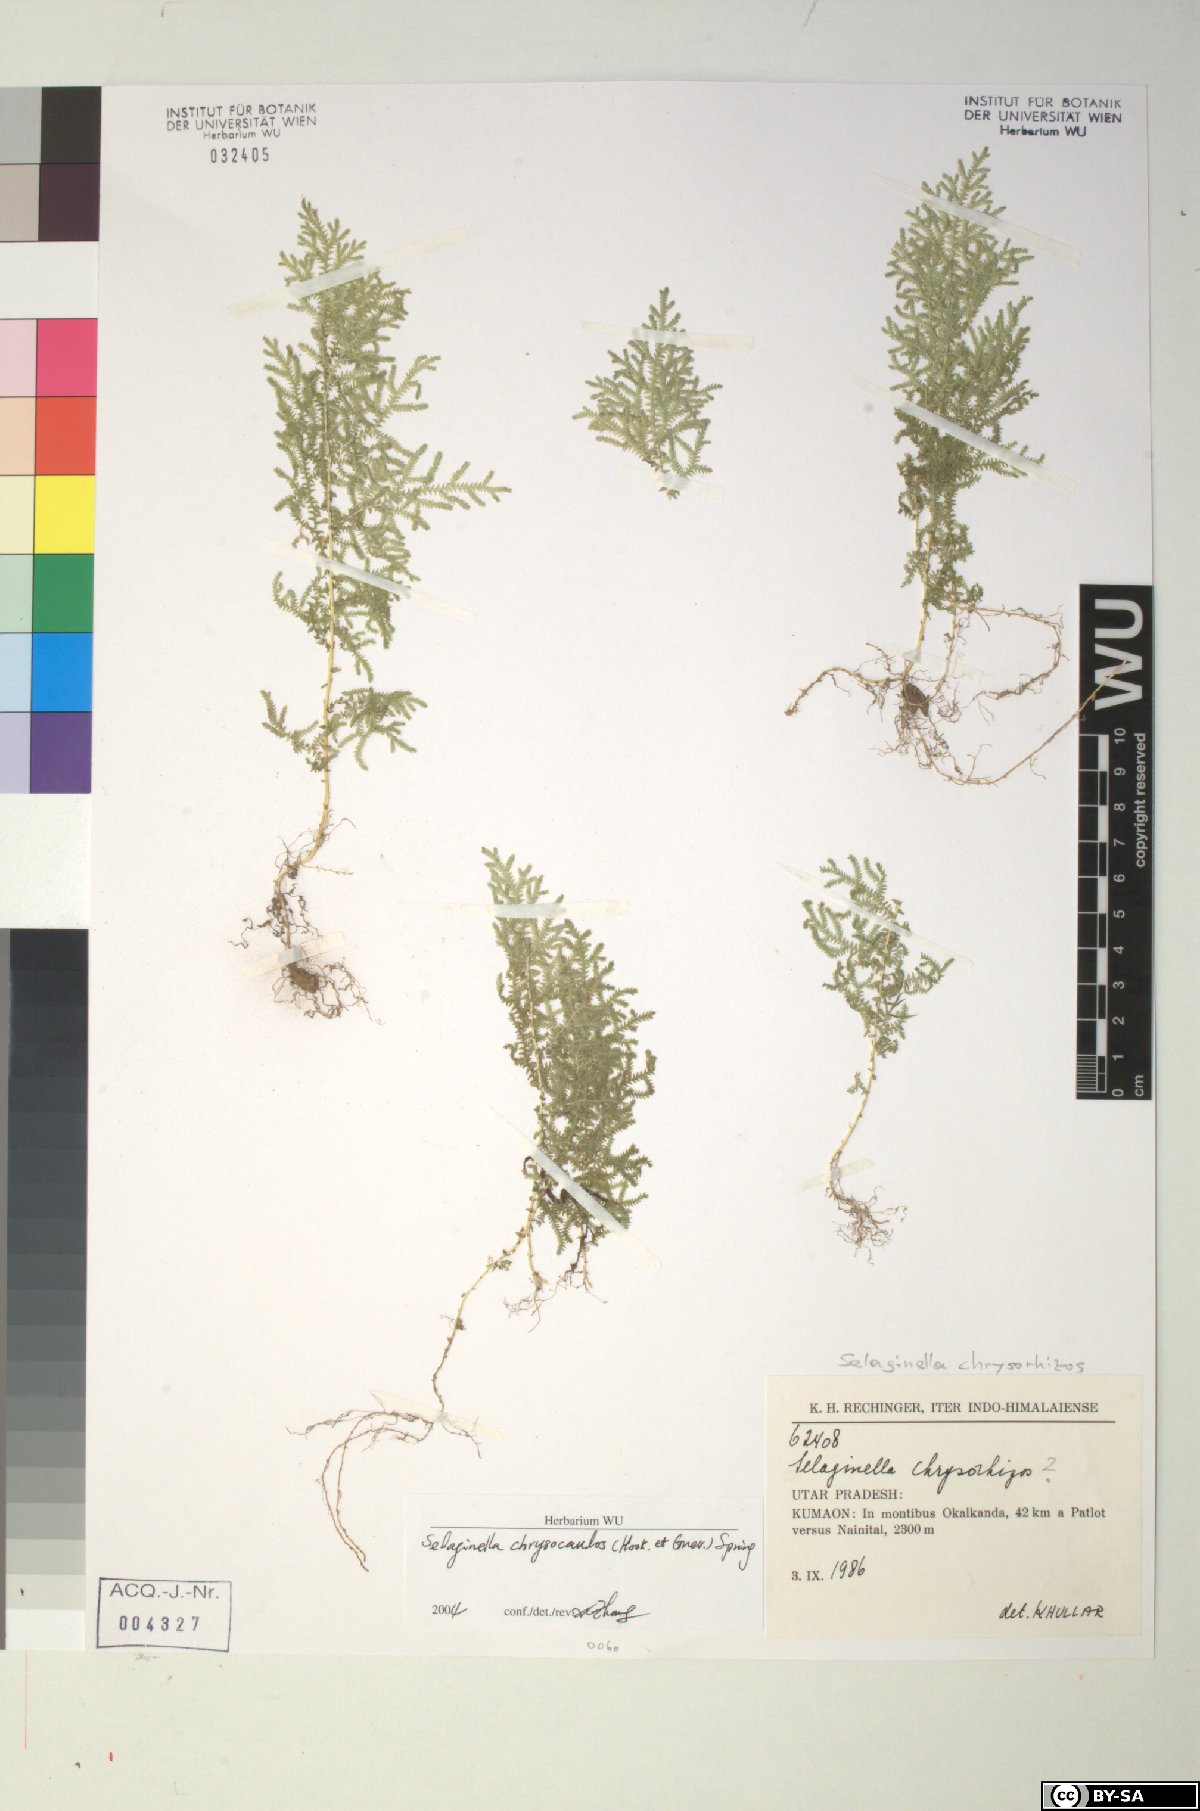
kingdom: Plantae
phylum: Tracheophyta
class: Lycopodiopsida
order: Selaginellales
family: Selaginellaceae
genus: Selaginella
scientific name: Selaginella chrysocaulos
